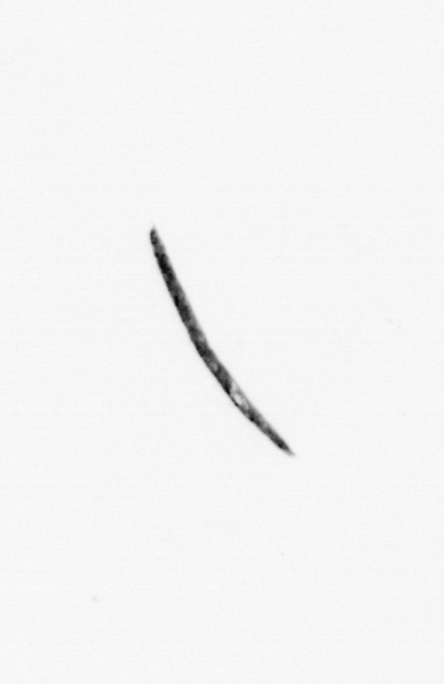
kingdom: Bacteria
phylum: Cyanobacteria
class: Cyanobacteriia
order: Cyanobacteriales
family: Microcoleaceae
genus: Trichodesmium
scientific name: Trichodesmium
